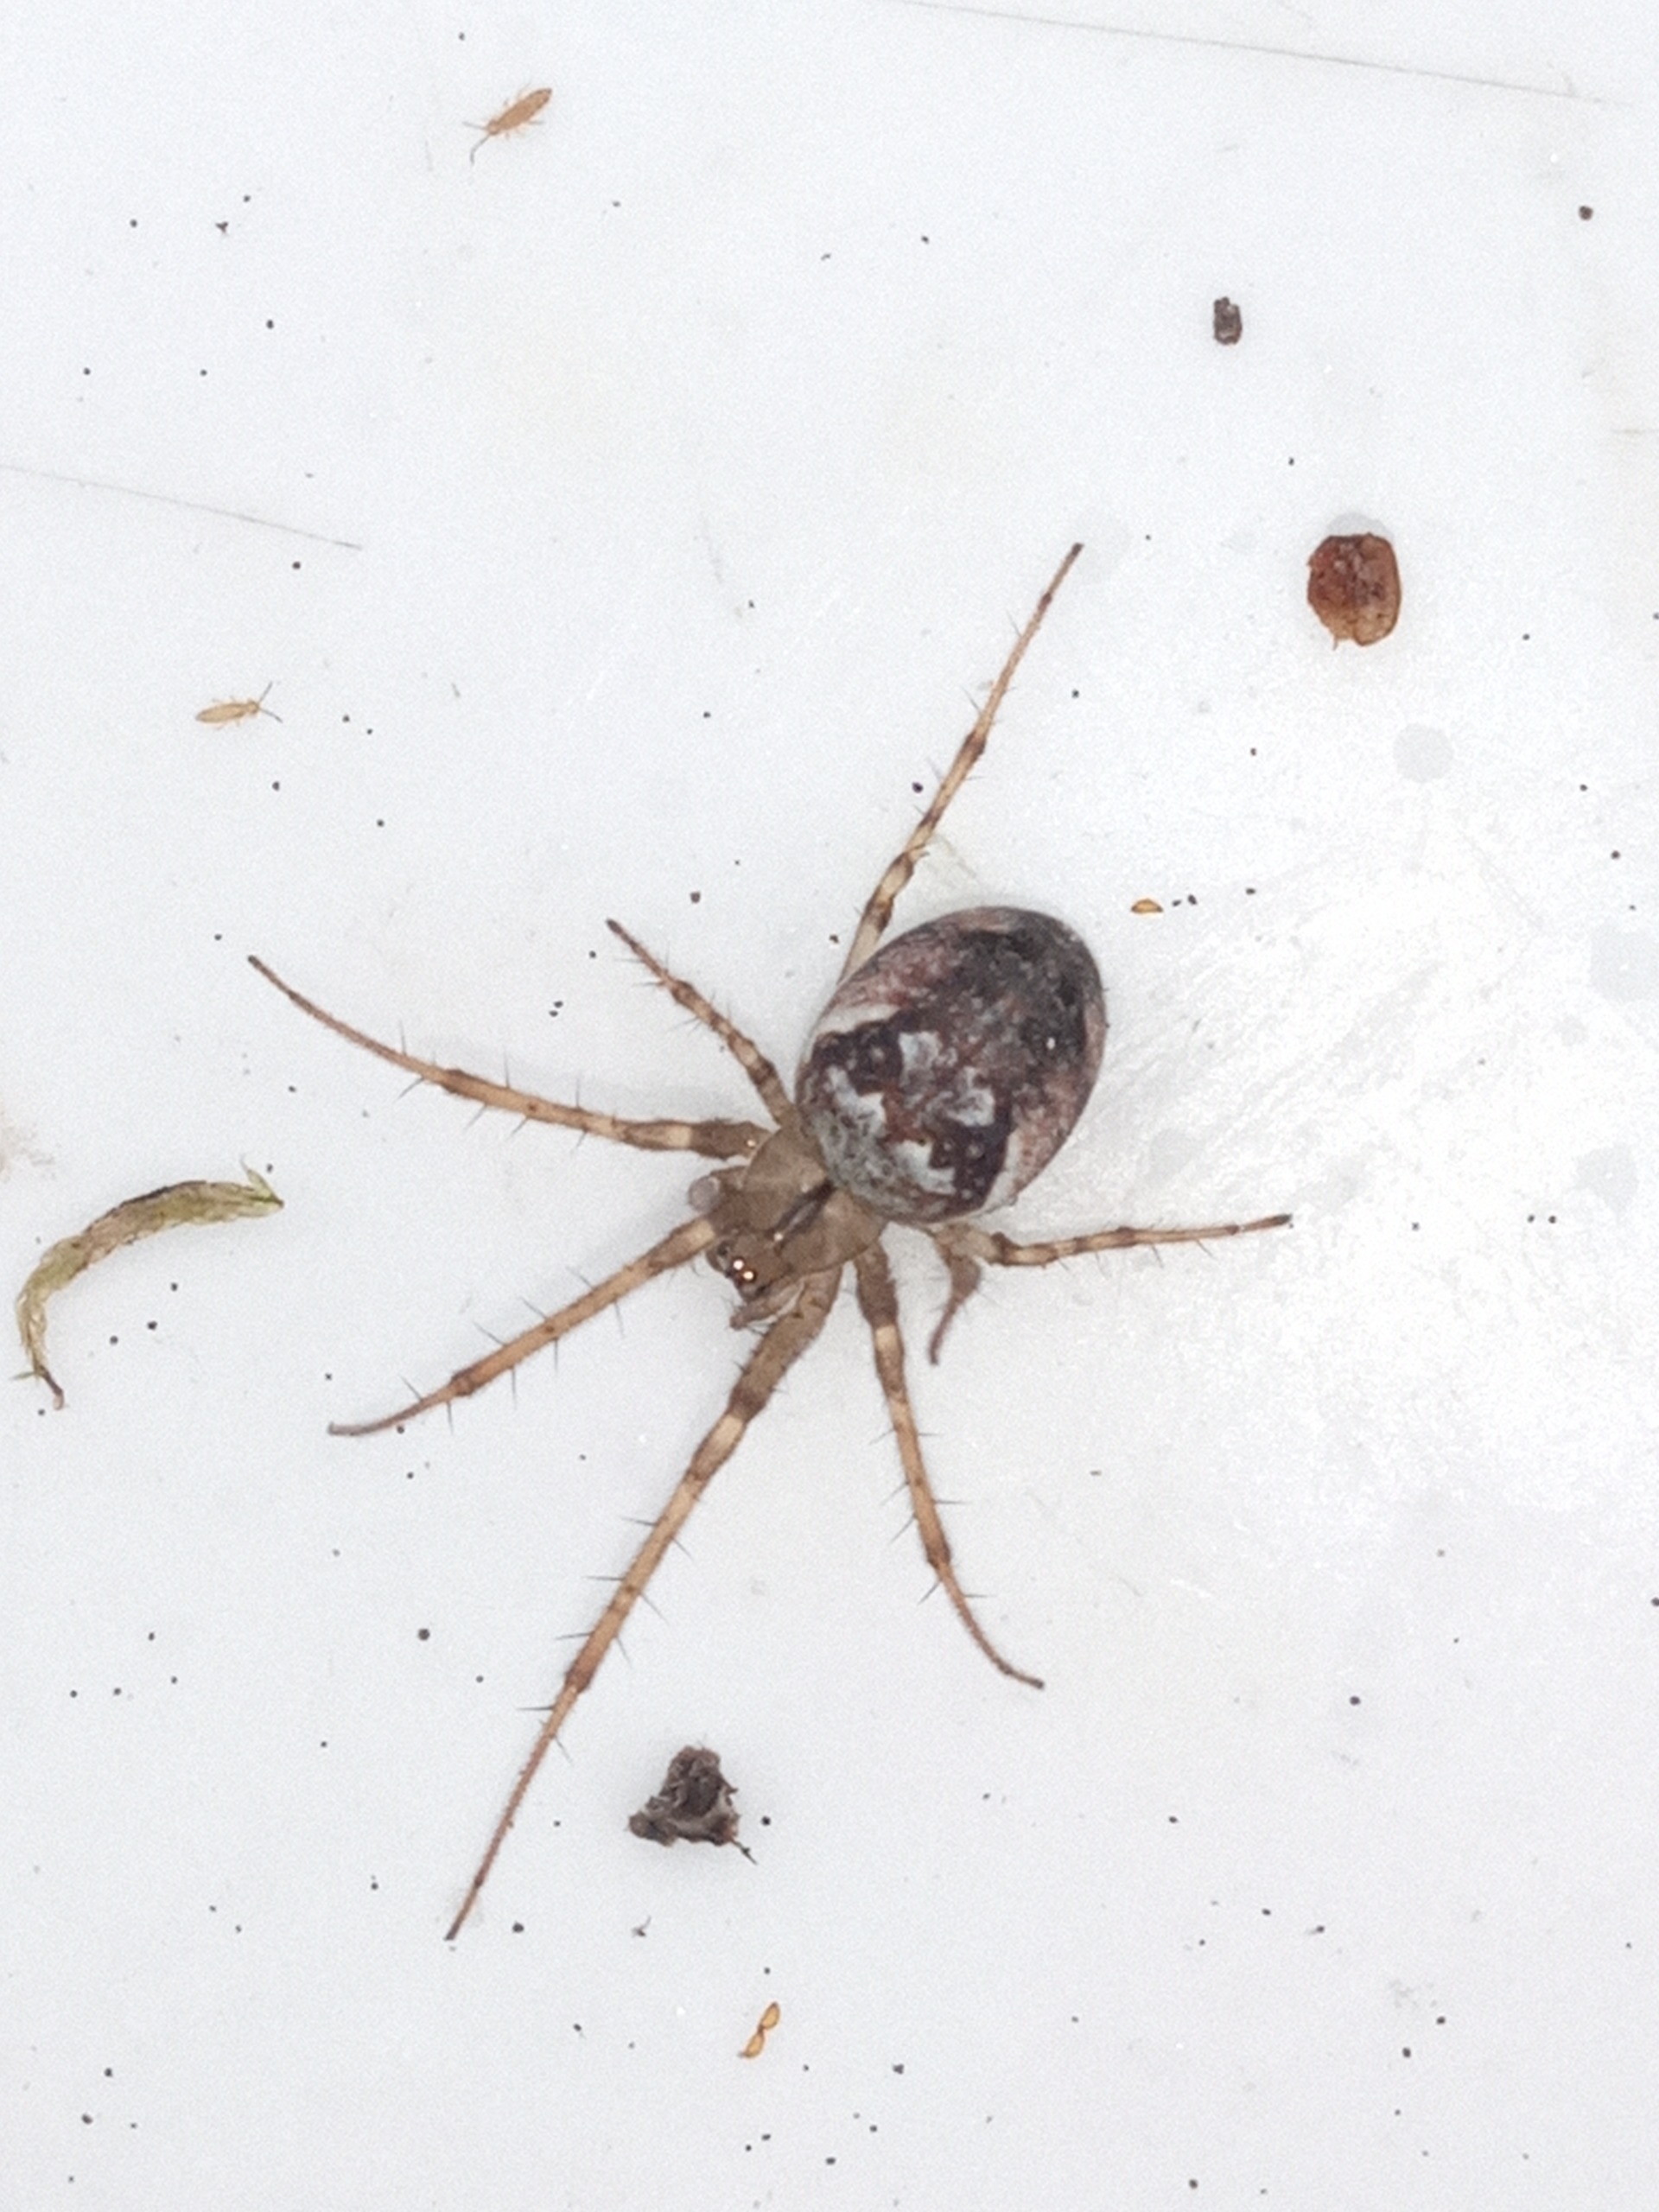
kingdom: Animalia
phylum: Arthropoda
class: Arachnida
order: Araneae
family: Tetragnathidae
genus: Metellina
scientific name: Metellina
